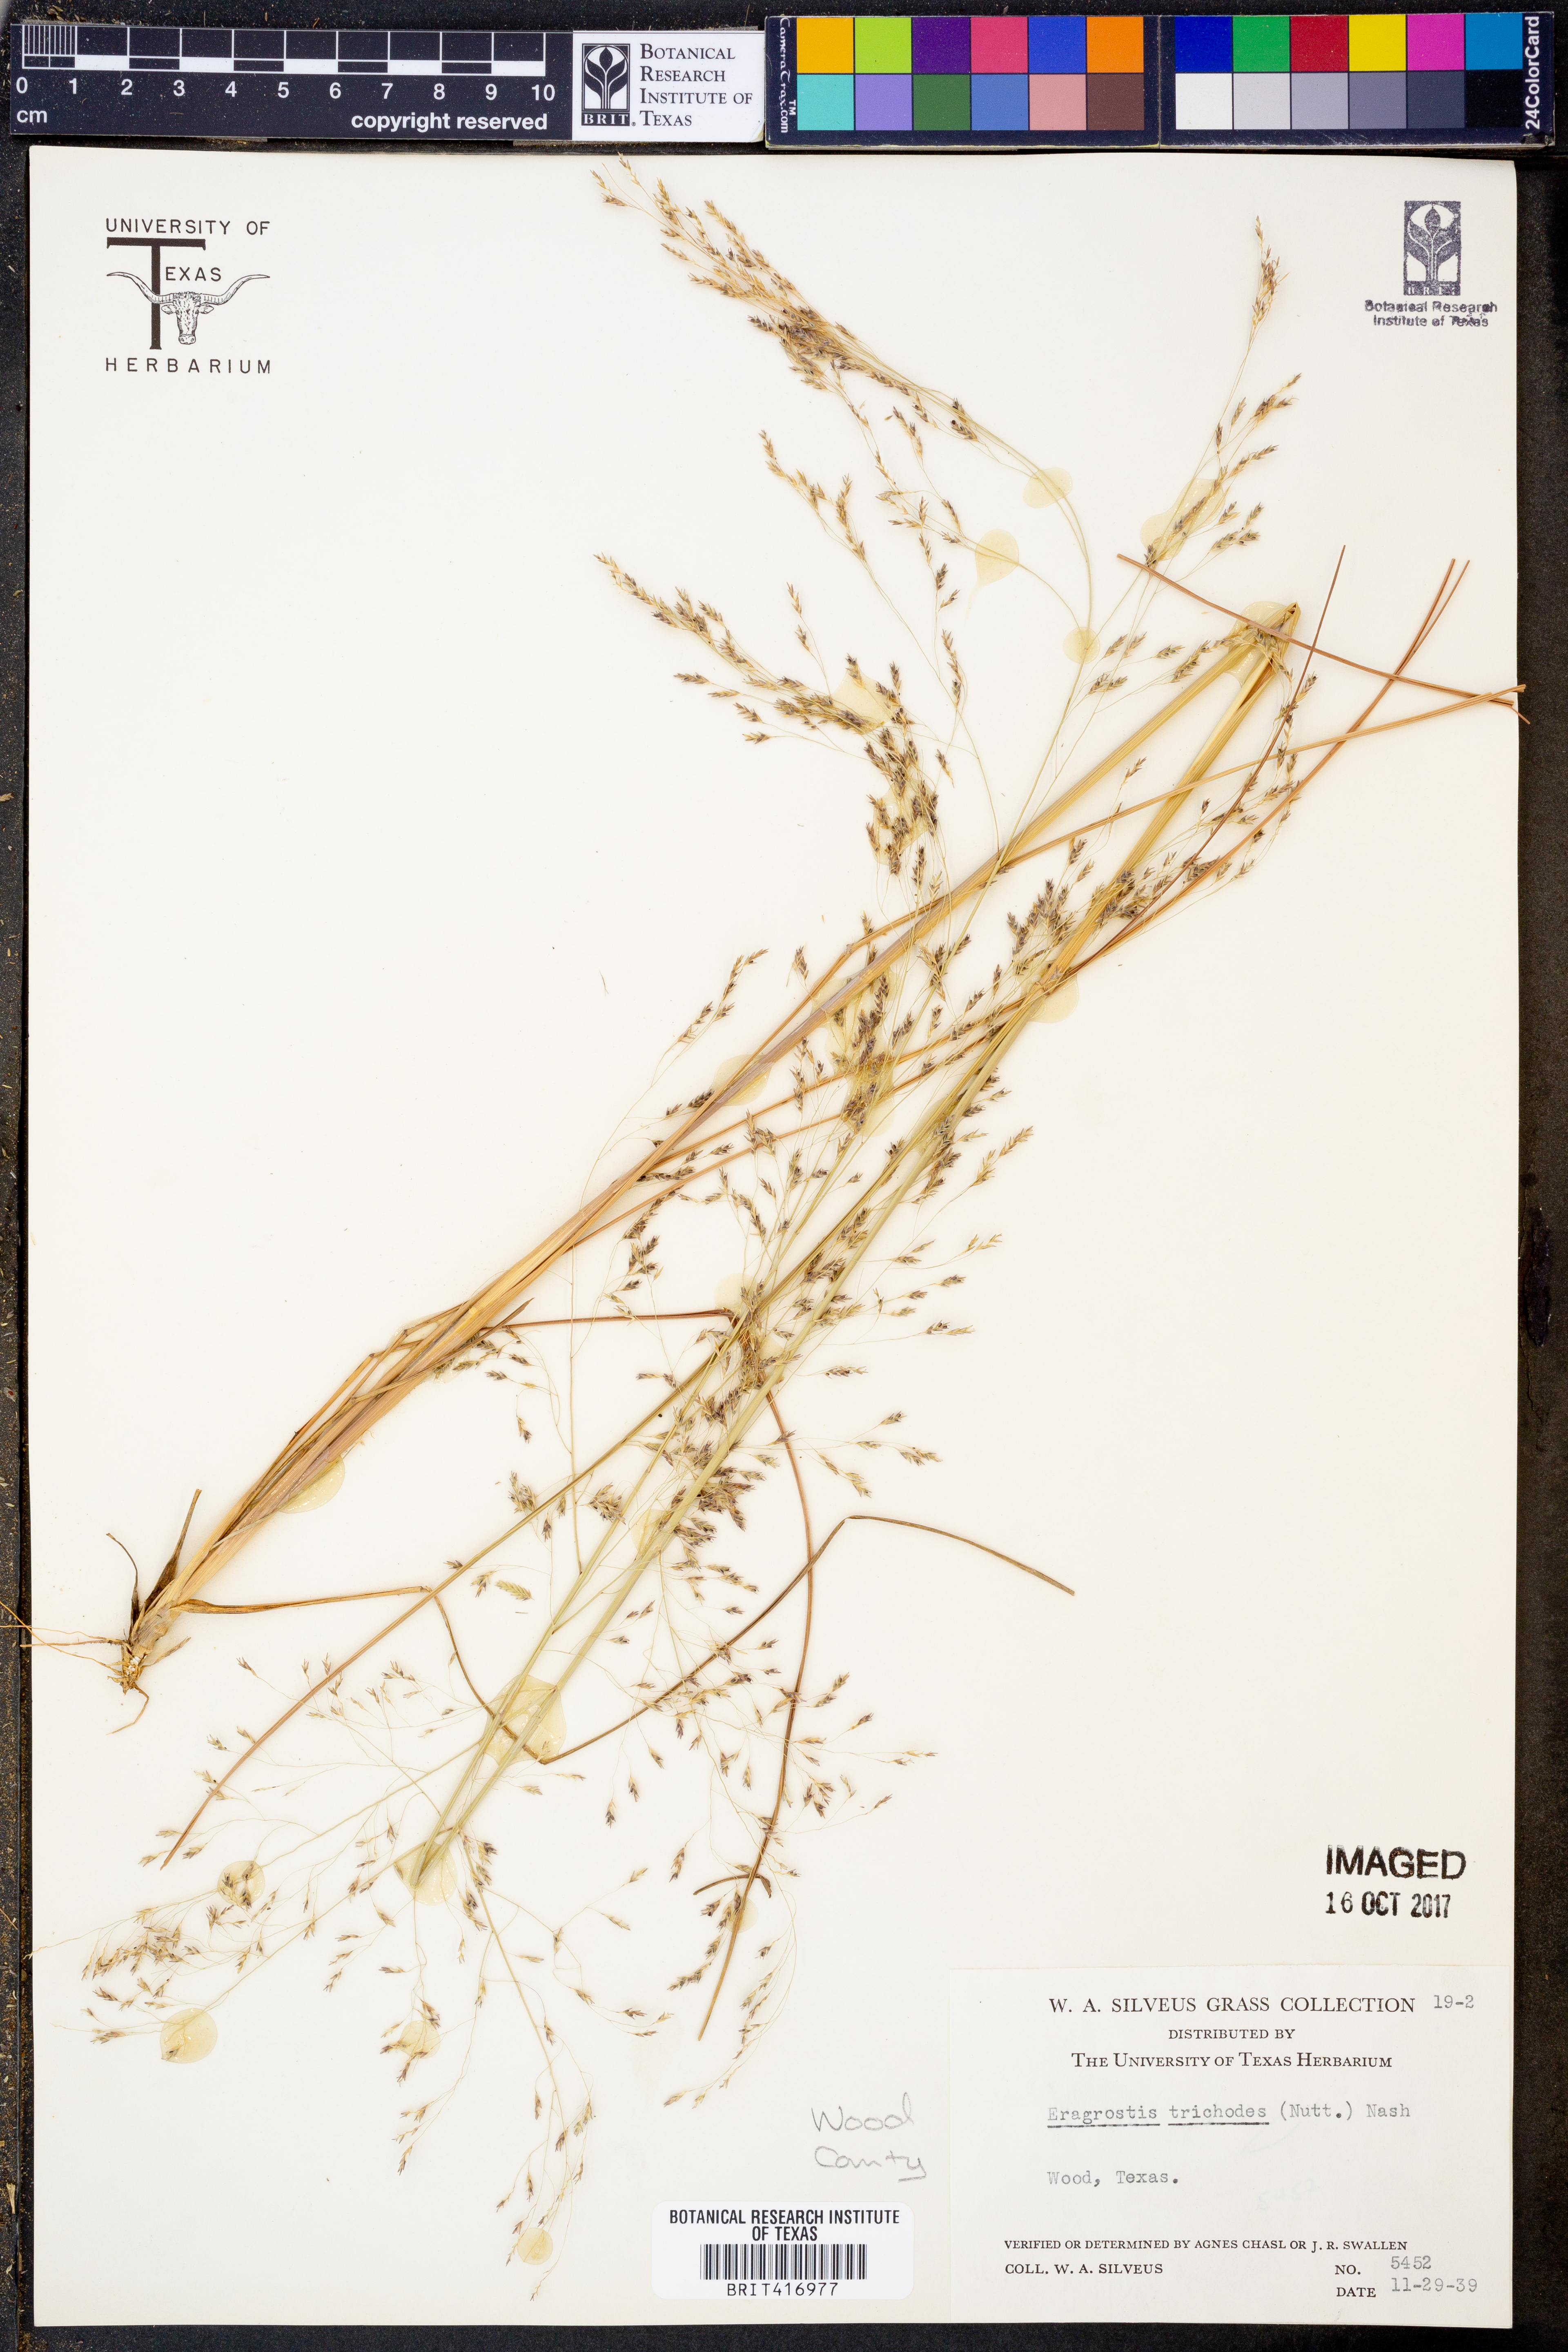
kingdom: Plantae
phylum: Tracheophyta
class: Liliopsida
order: Poales
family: Poaceae
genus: Eragrostis
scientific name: Eragrostis trichodes
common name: Sand love grass
